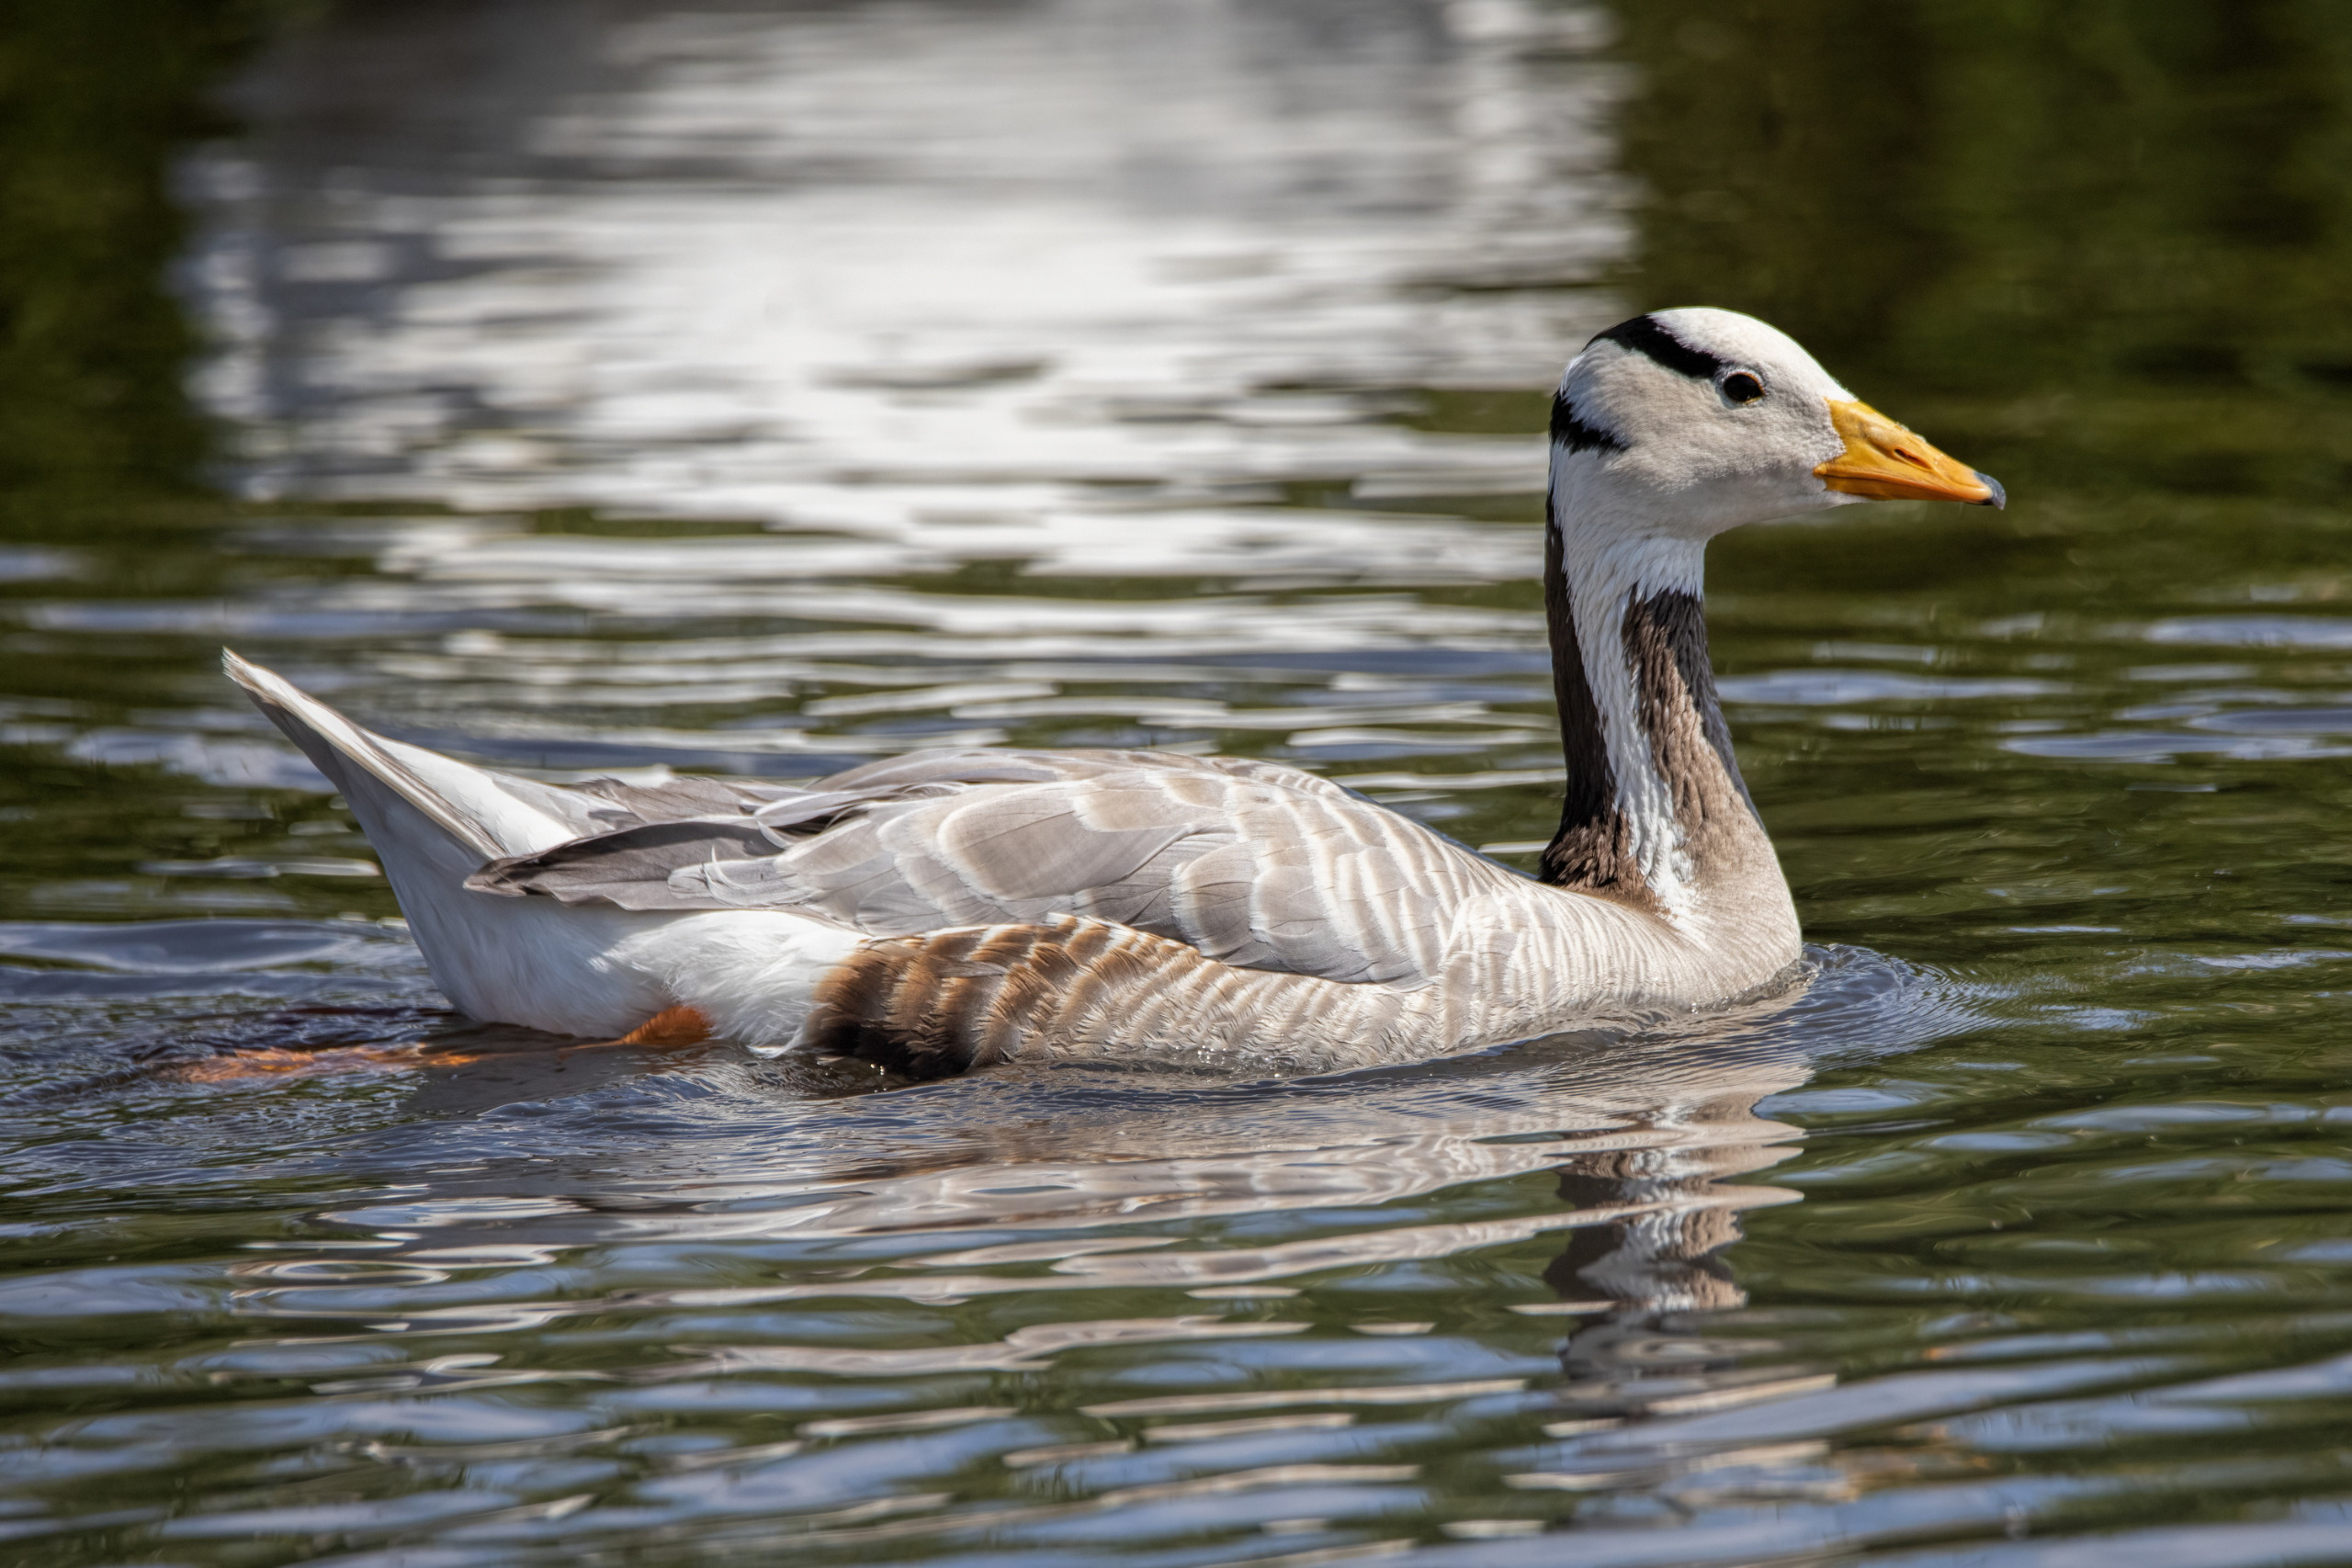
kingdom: Animalia
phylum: Chordata
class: Aves
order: Anseriformes
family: Anatidae
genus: Anser
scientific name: Anser indicus
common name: Indisk gås
